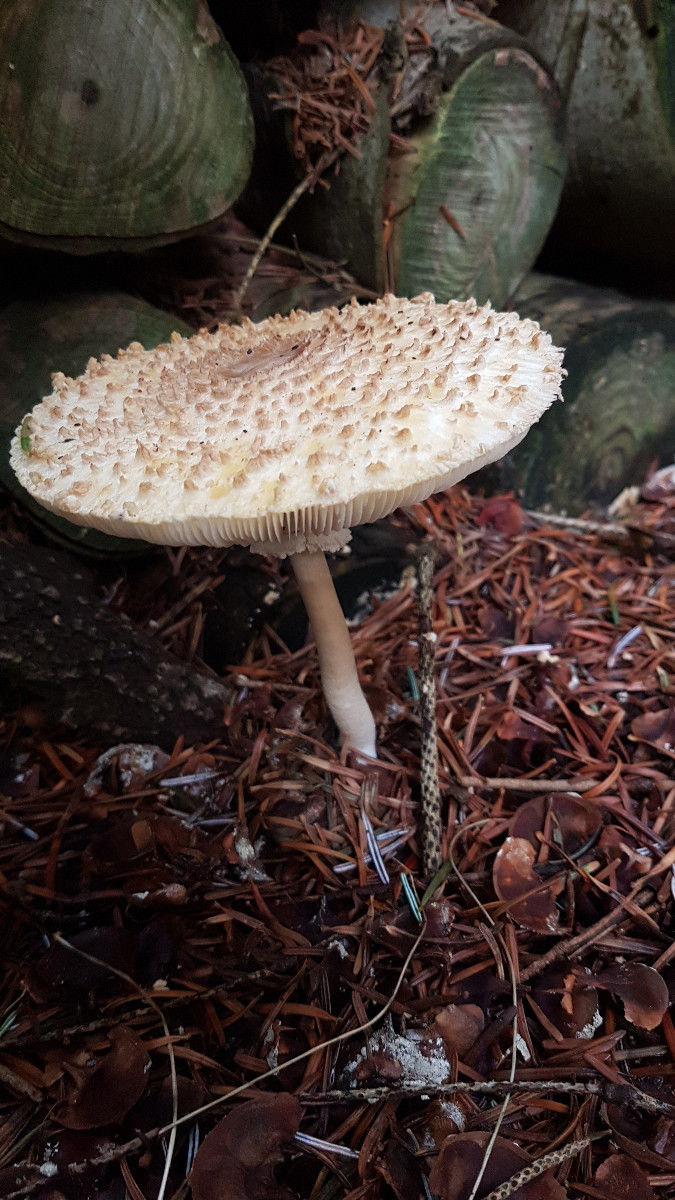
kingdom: Fungi
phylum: Basidiomycota
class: Agaricomycetes
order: Agaricales
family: Agaricaceae
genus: Leucoagaricus
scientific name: Leucoagaricus nympharum
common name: gran-silkehat
